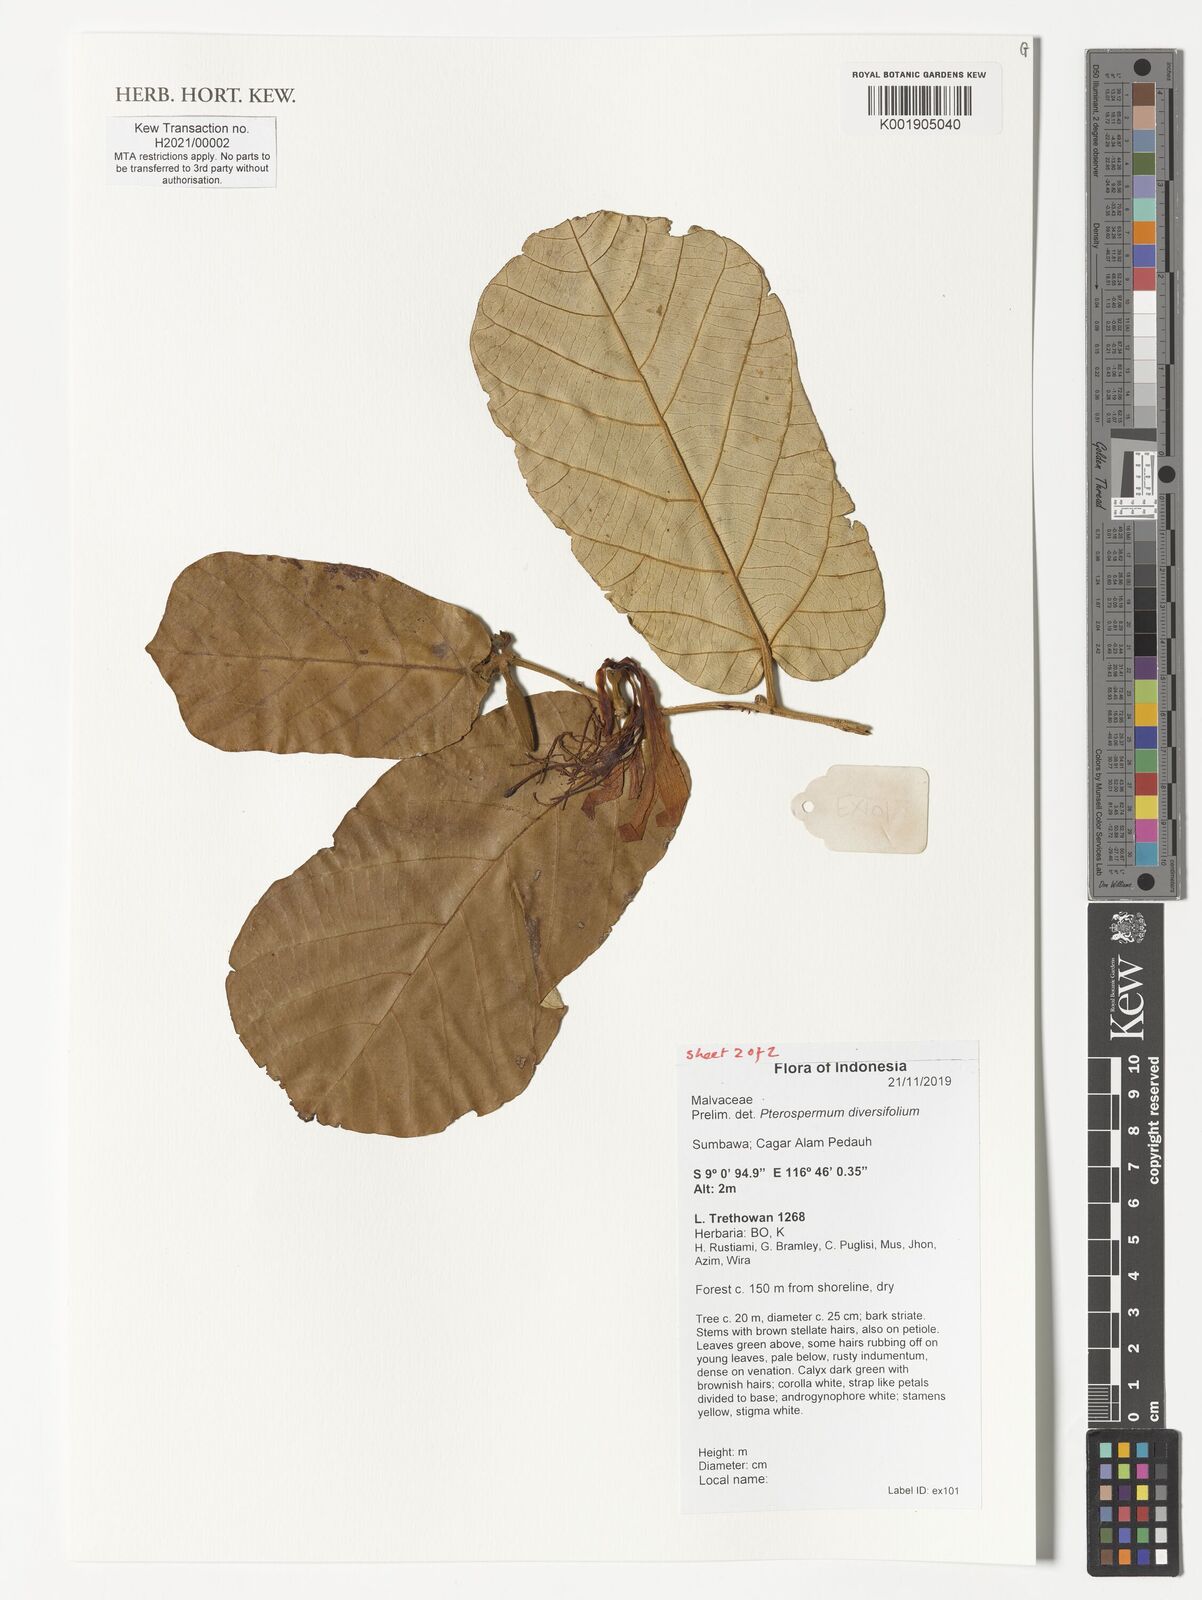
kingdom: Plantae
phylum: Tracheophyta
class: Magnoliopsida
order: Malvales
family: Malvaceae
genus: Pterospermum
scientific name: Pterospermum diversifolium
